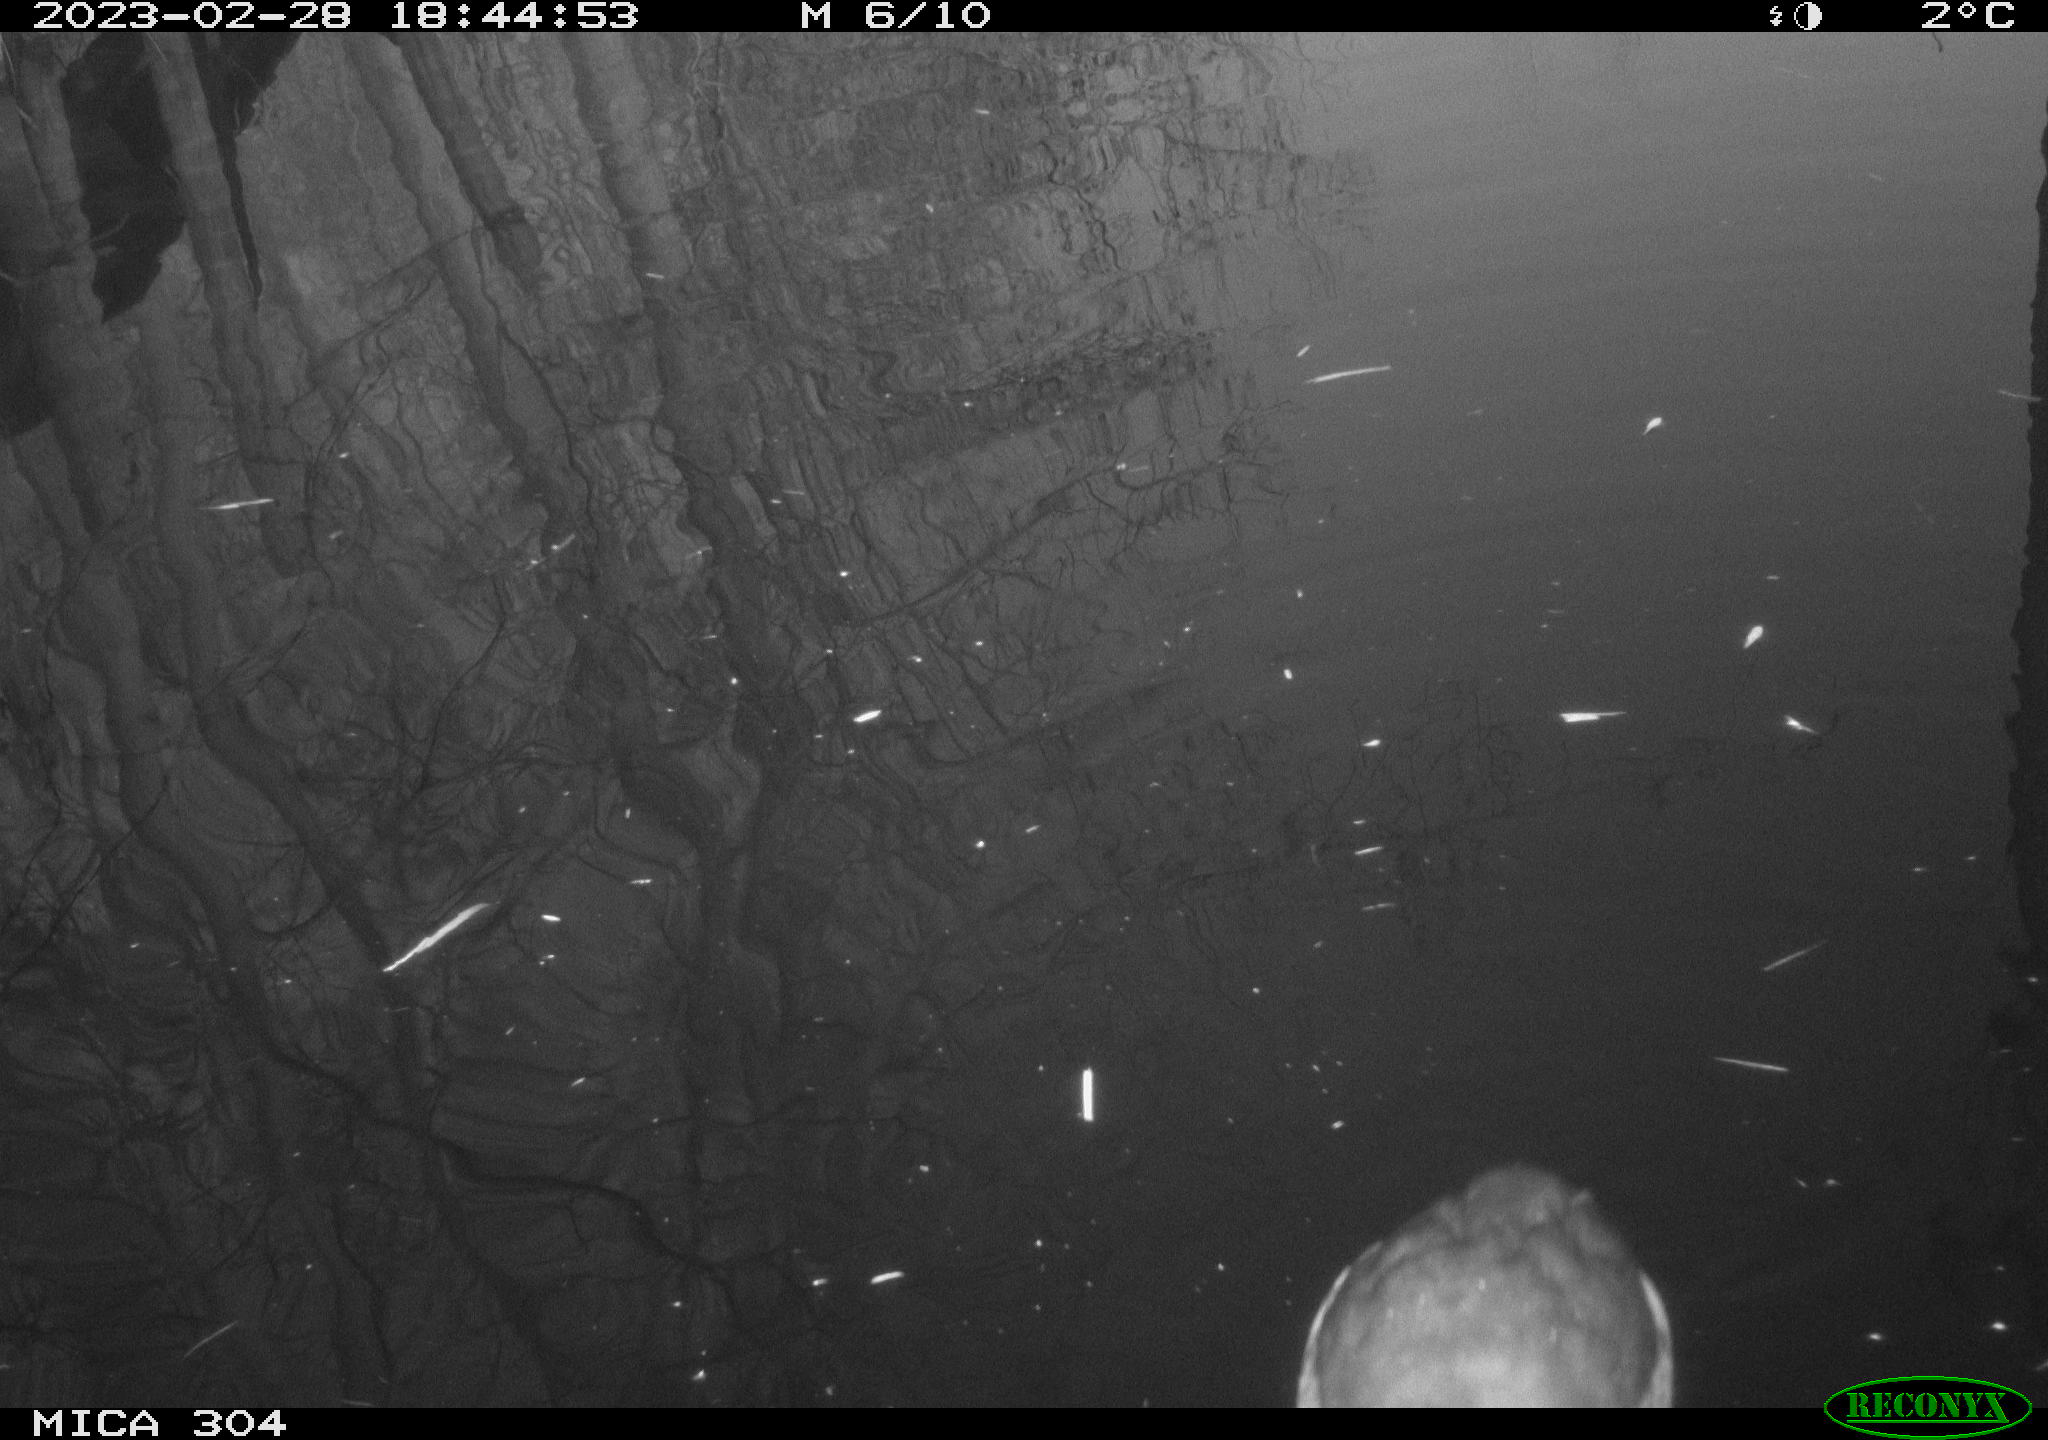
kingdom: Animalia
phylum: Chordata
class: Aves
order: Gruiformes
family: Rallidae
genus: Fulica
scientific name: Fulica atra
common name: Eurasian coot
